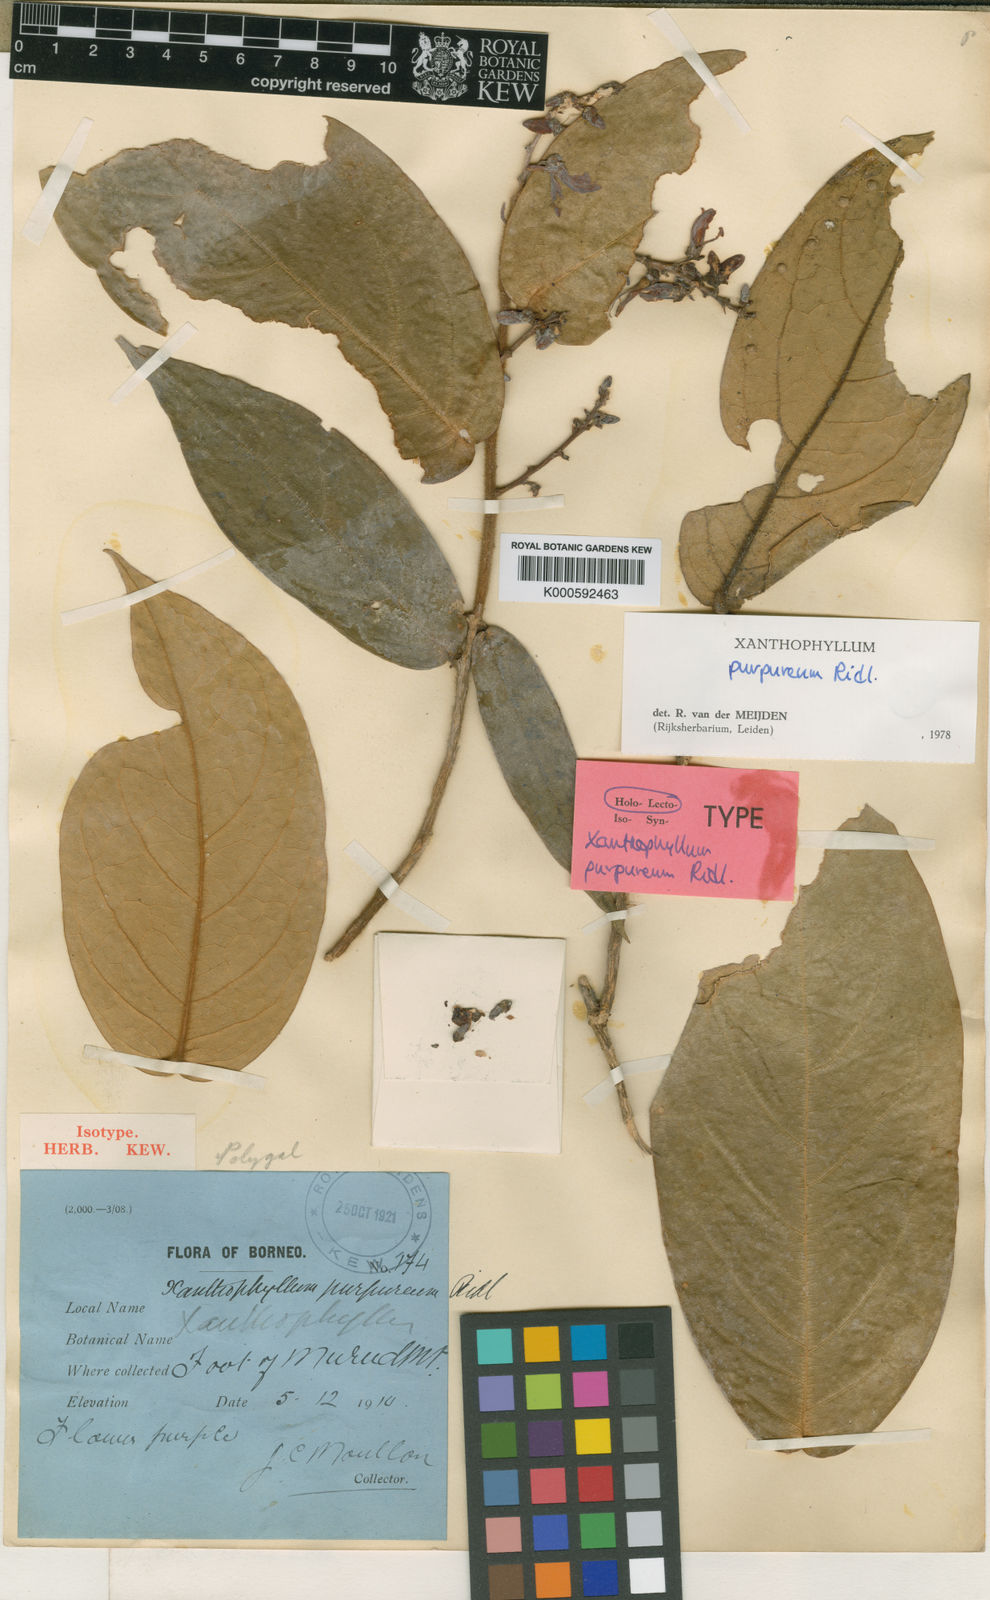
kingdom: Plantae
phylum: Tracheophyta
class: Magnoliopsida
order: Fabales
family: Polygalaceae
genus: Xanthophyllum
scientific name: Xanthophyllum purpureum
